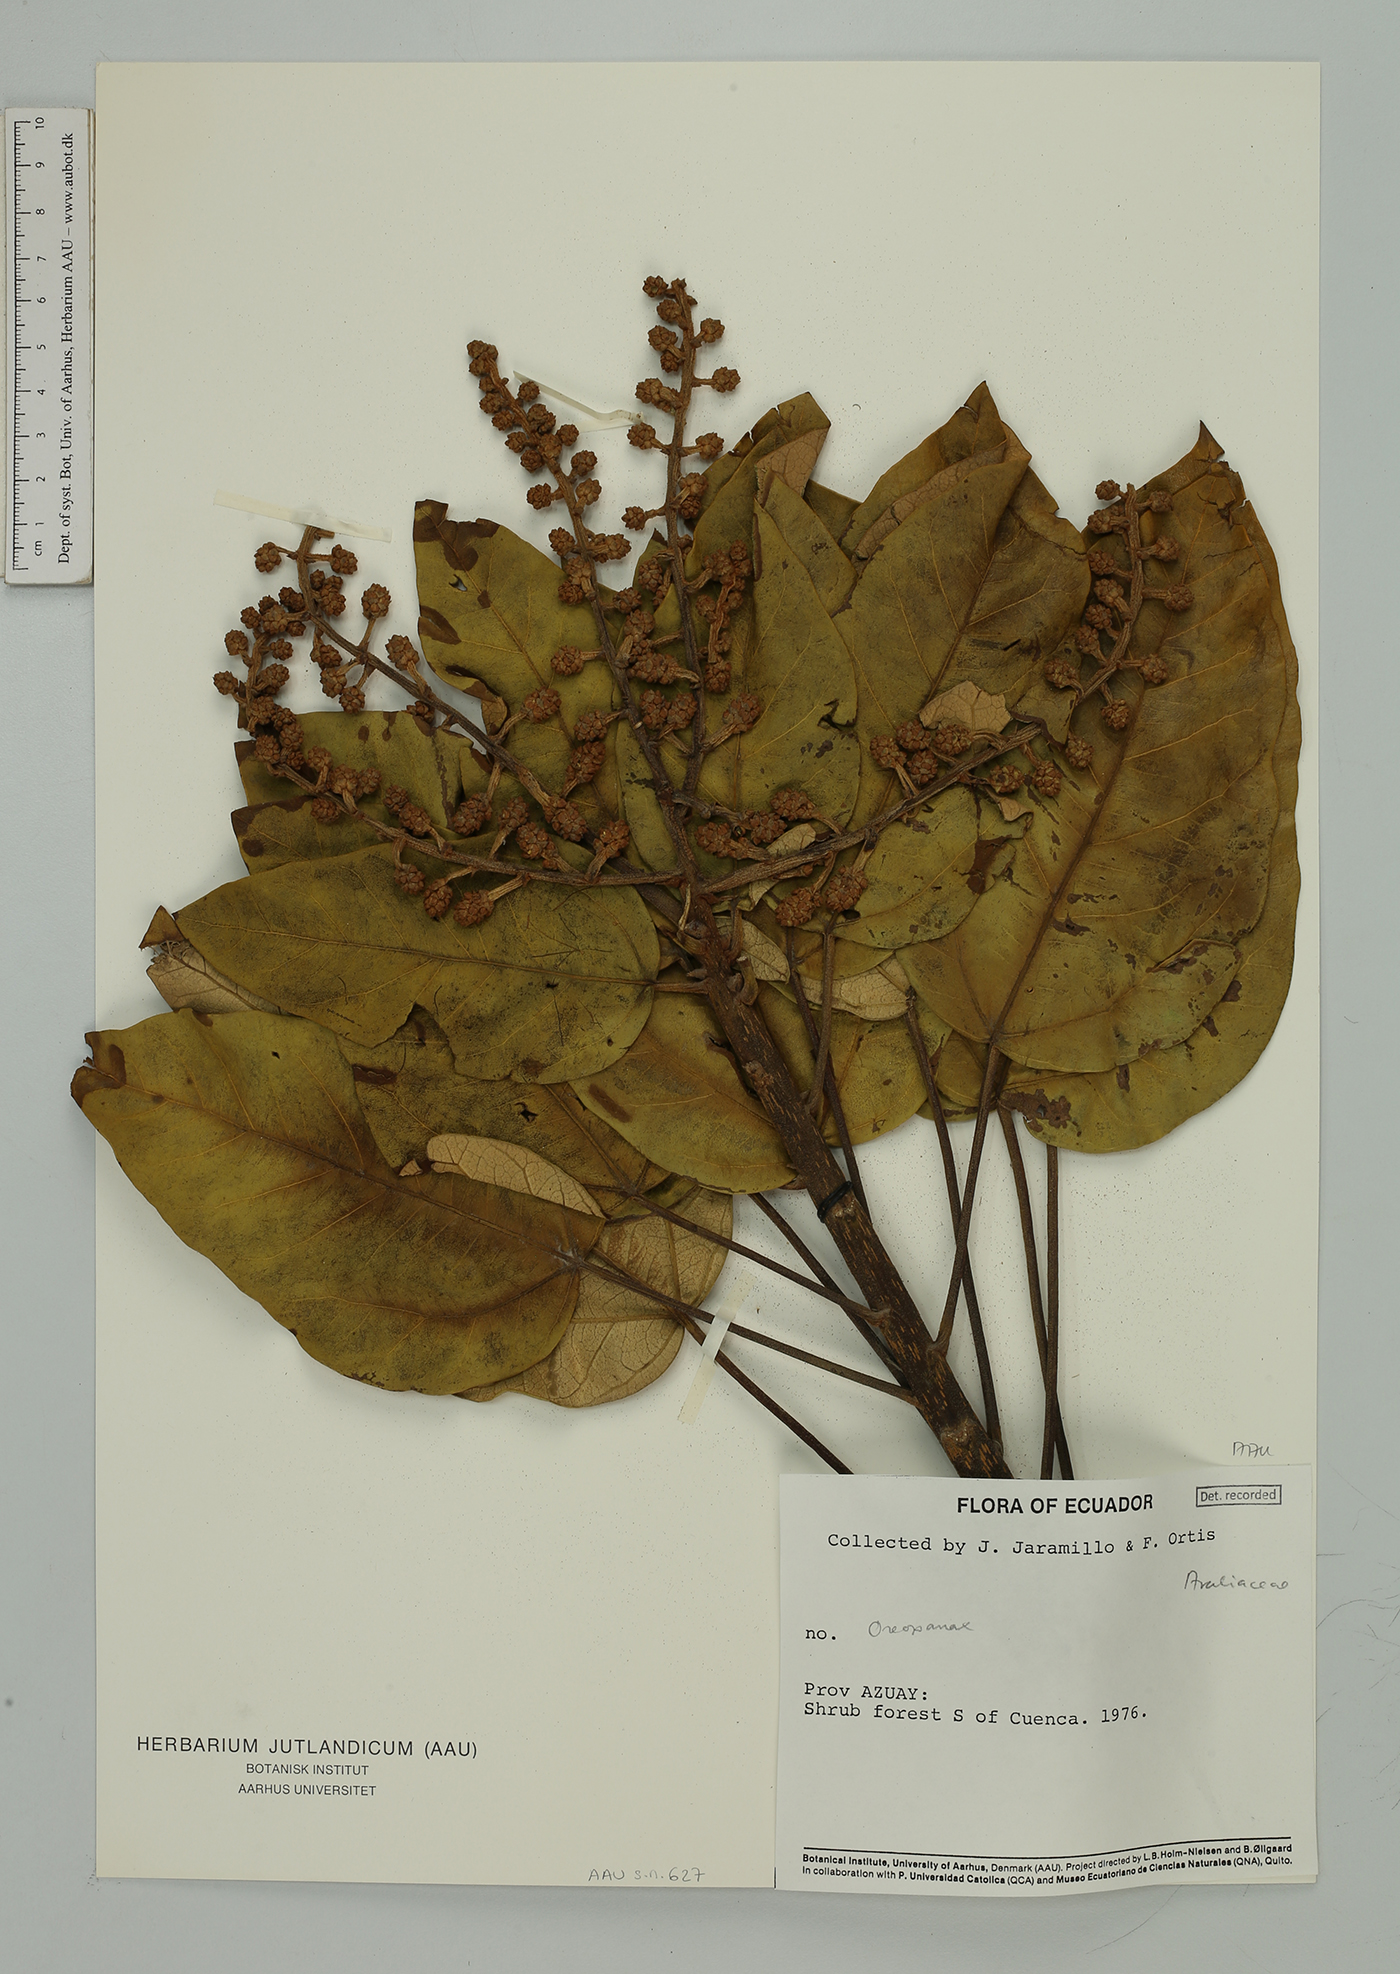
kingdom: Plantae
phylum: Tracheophyta
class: Magnoliopsida
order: Apiales
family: Araliaceae
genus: Oreopanax
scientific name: Oreopanax
